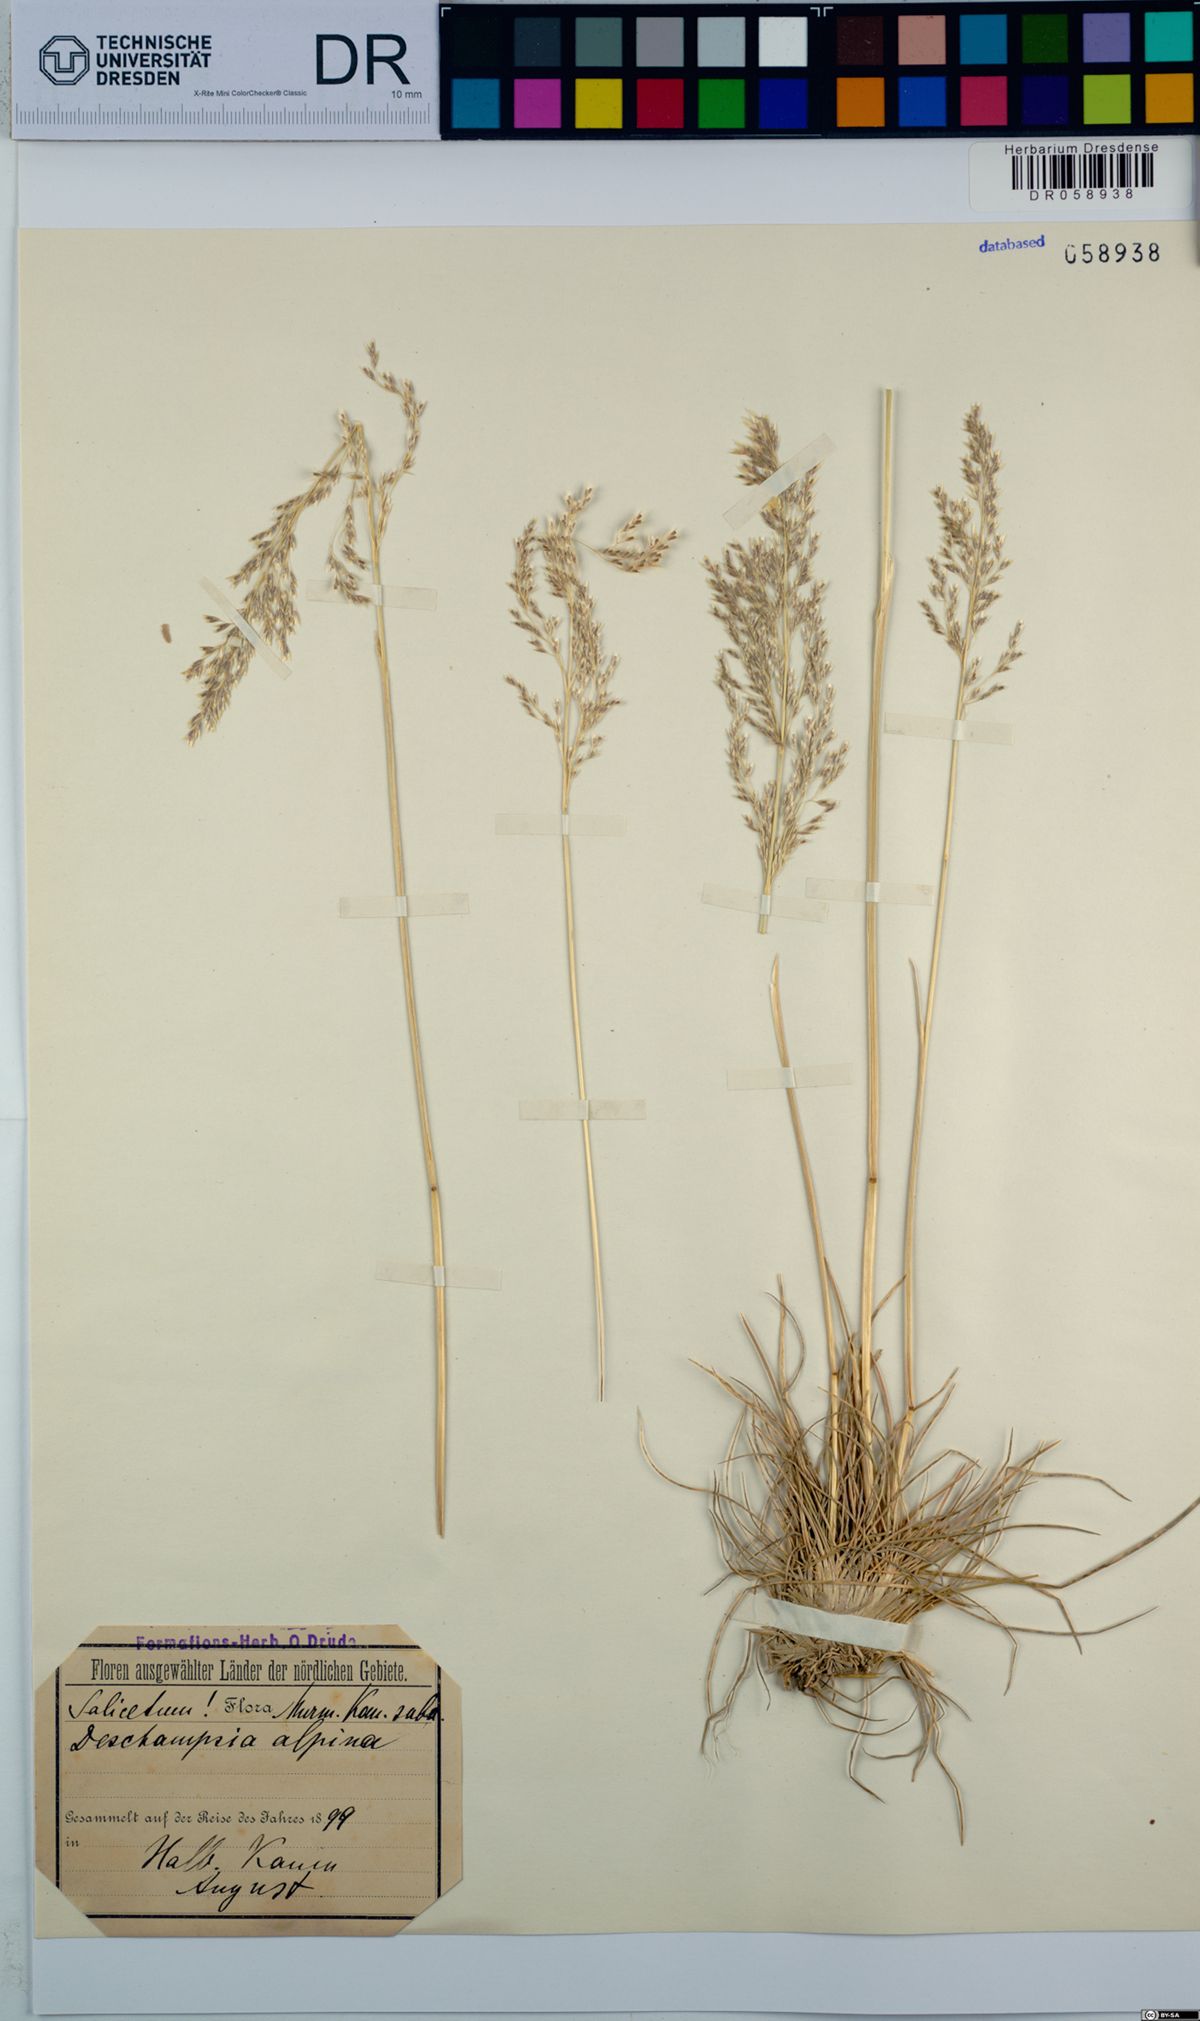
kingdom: Plantae
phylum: Tracheophyta
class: Liliopsida
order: Poales
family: Poaceae
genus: Deschampsia
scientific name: Deschampsia cespitosa
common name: Tufted hair-grass
